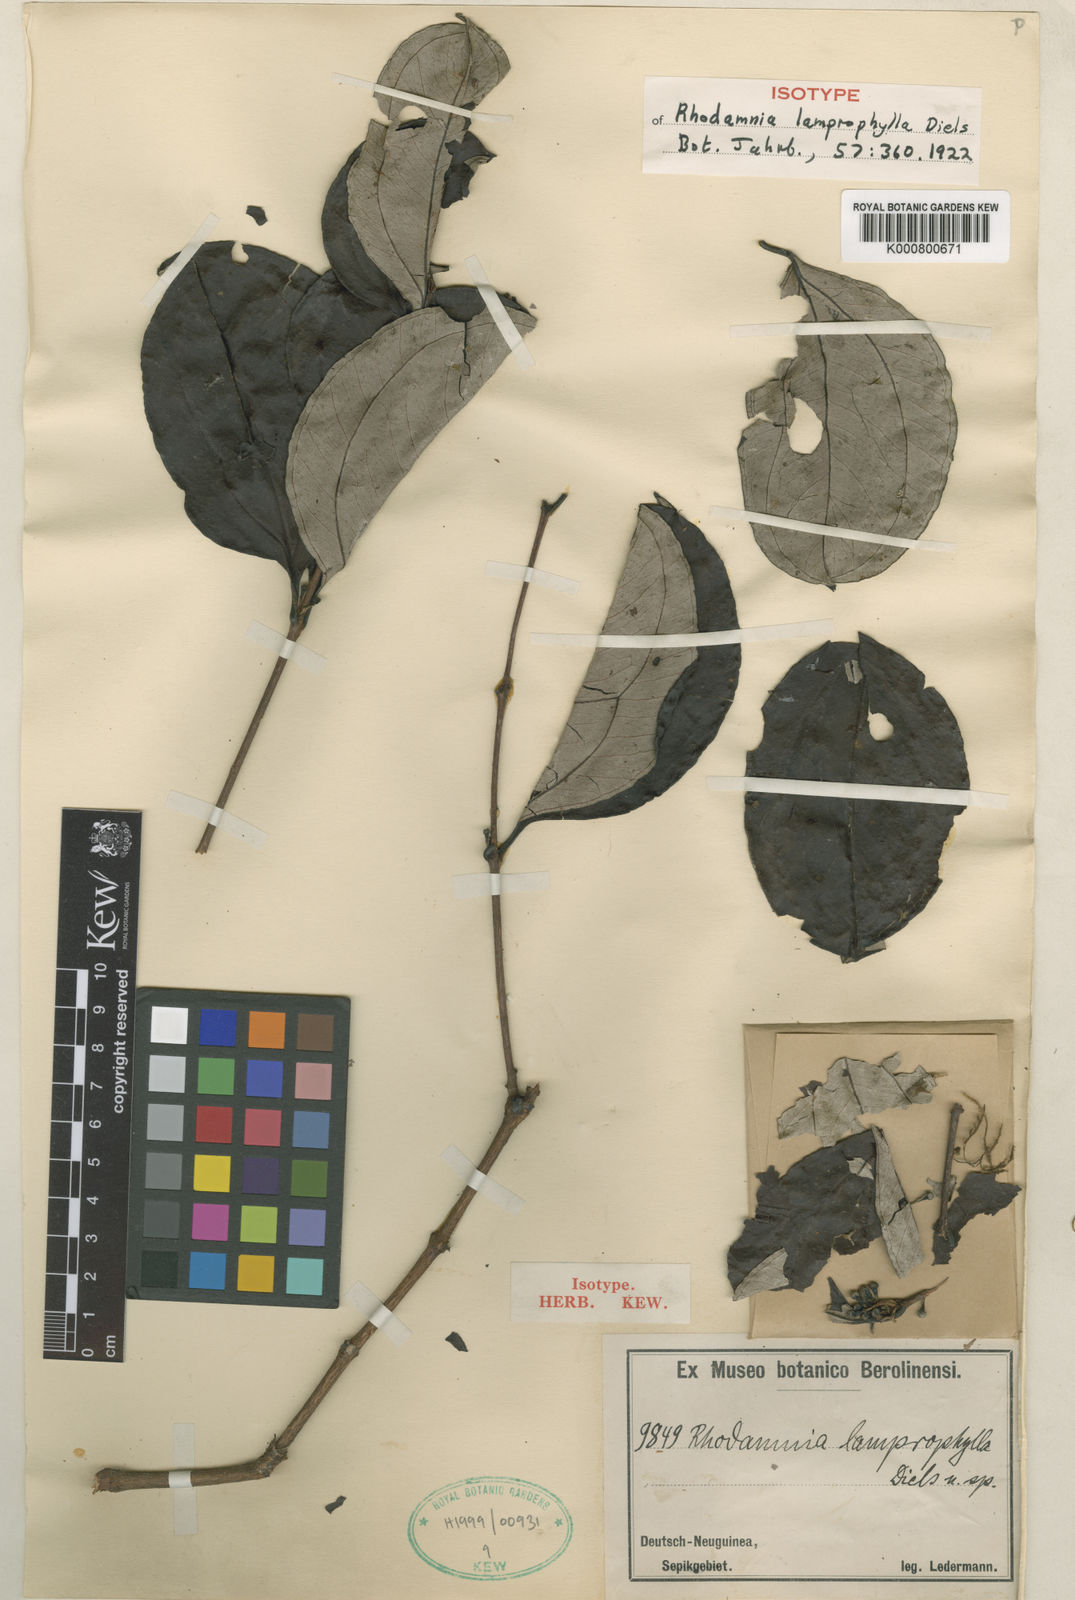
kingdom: Plantae
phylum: Tracheophyta
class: Magnoliopsida
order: Myrtales
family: Myrtaceae
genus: Rhodamnia
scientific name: Rhodamnia latifolia
